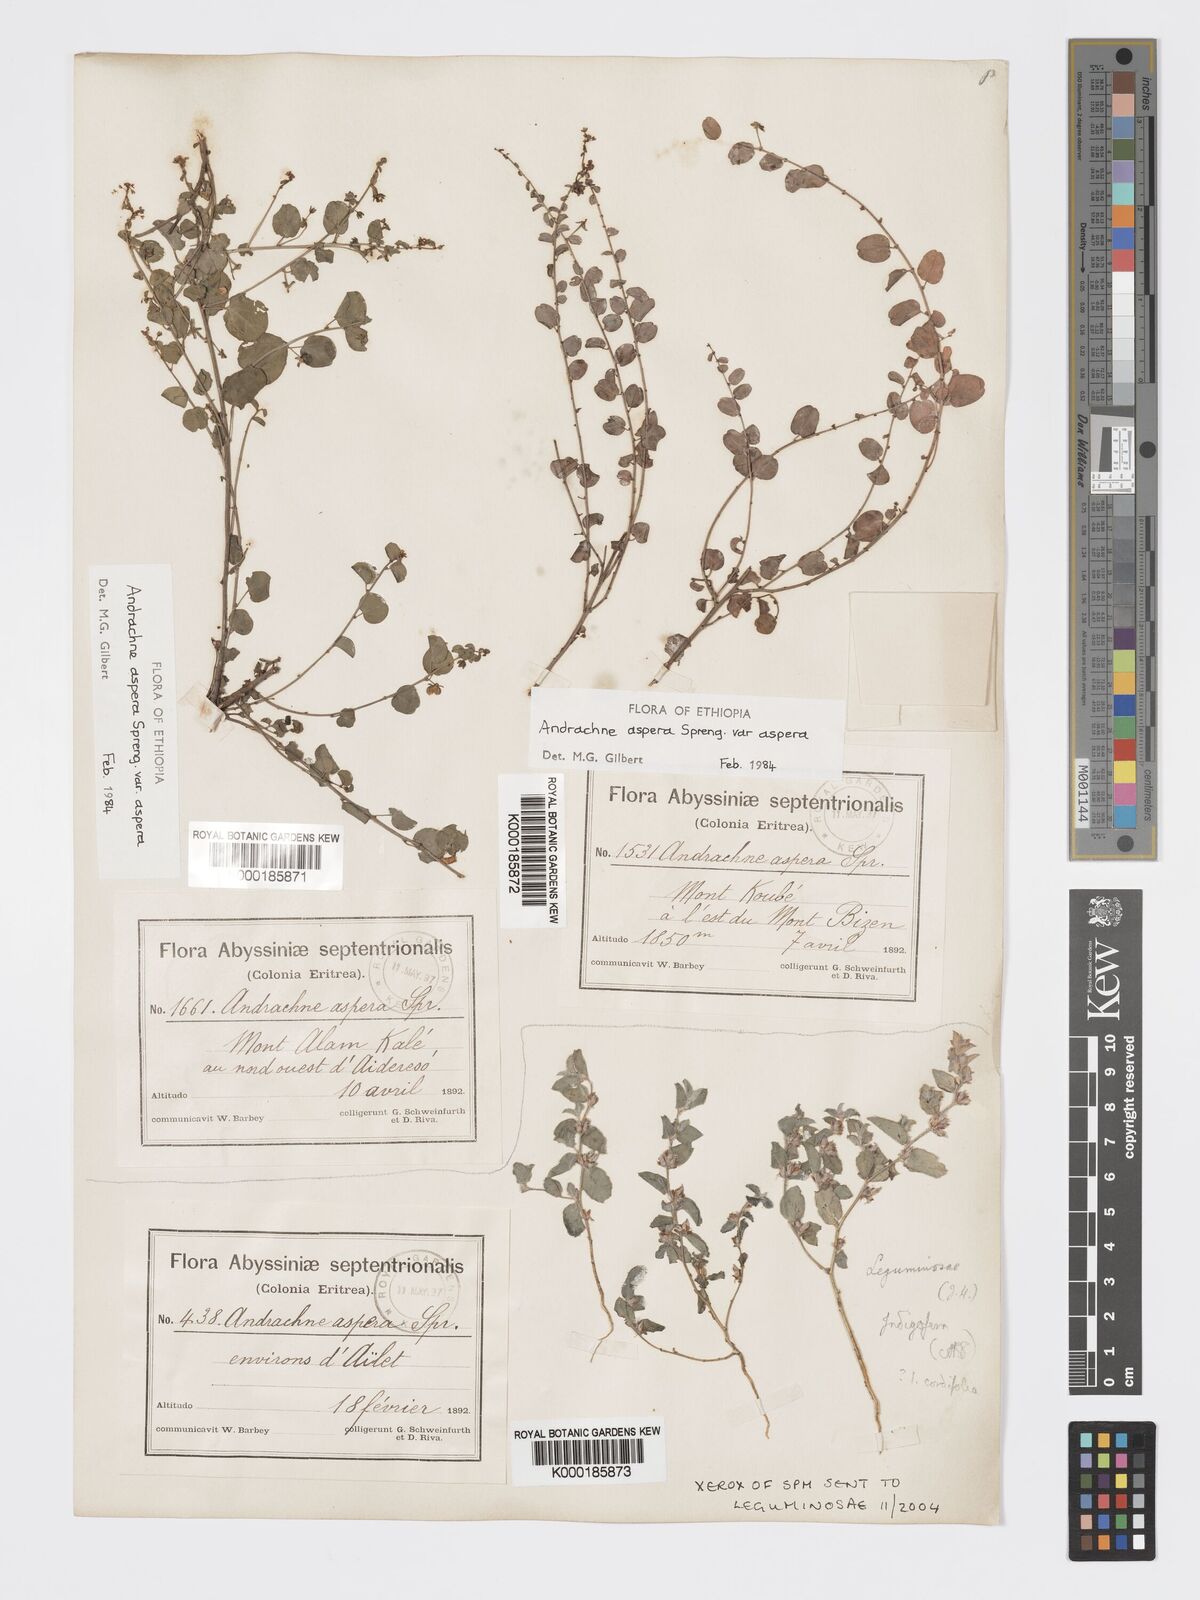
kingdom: Plantae
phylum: Tracheophyta
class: Magnoliopsida
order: Malpighiales
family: Phyllanthaceae
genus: Andrachne
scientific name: Andrachne aspera
